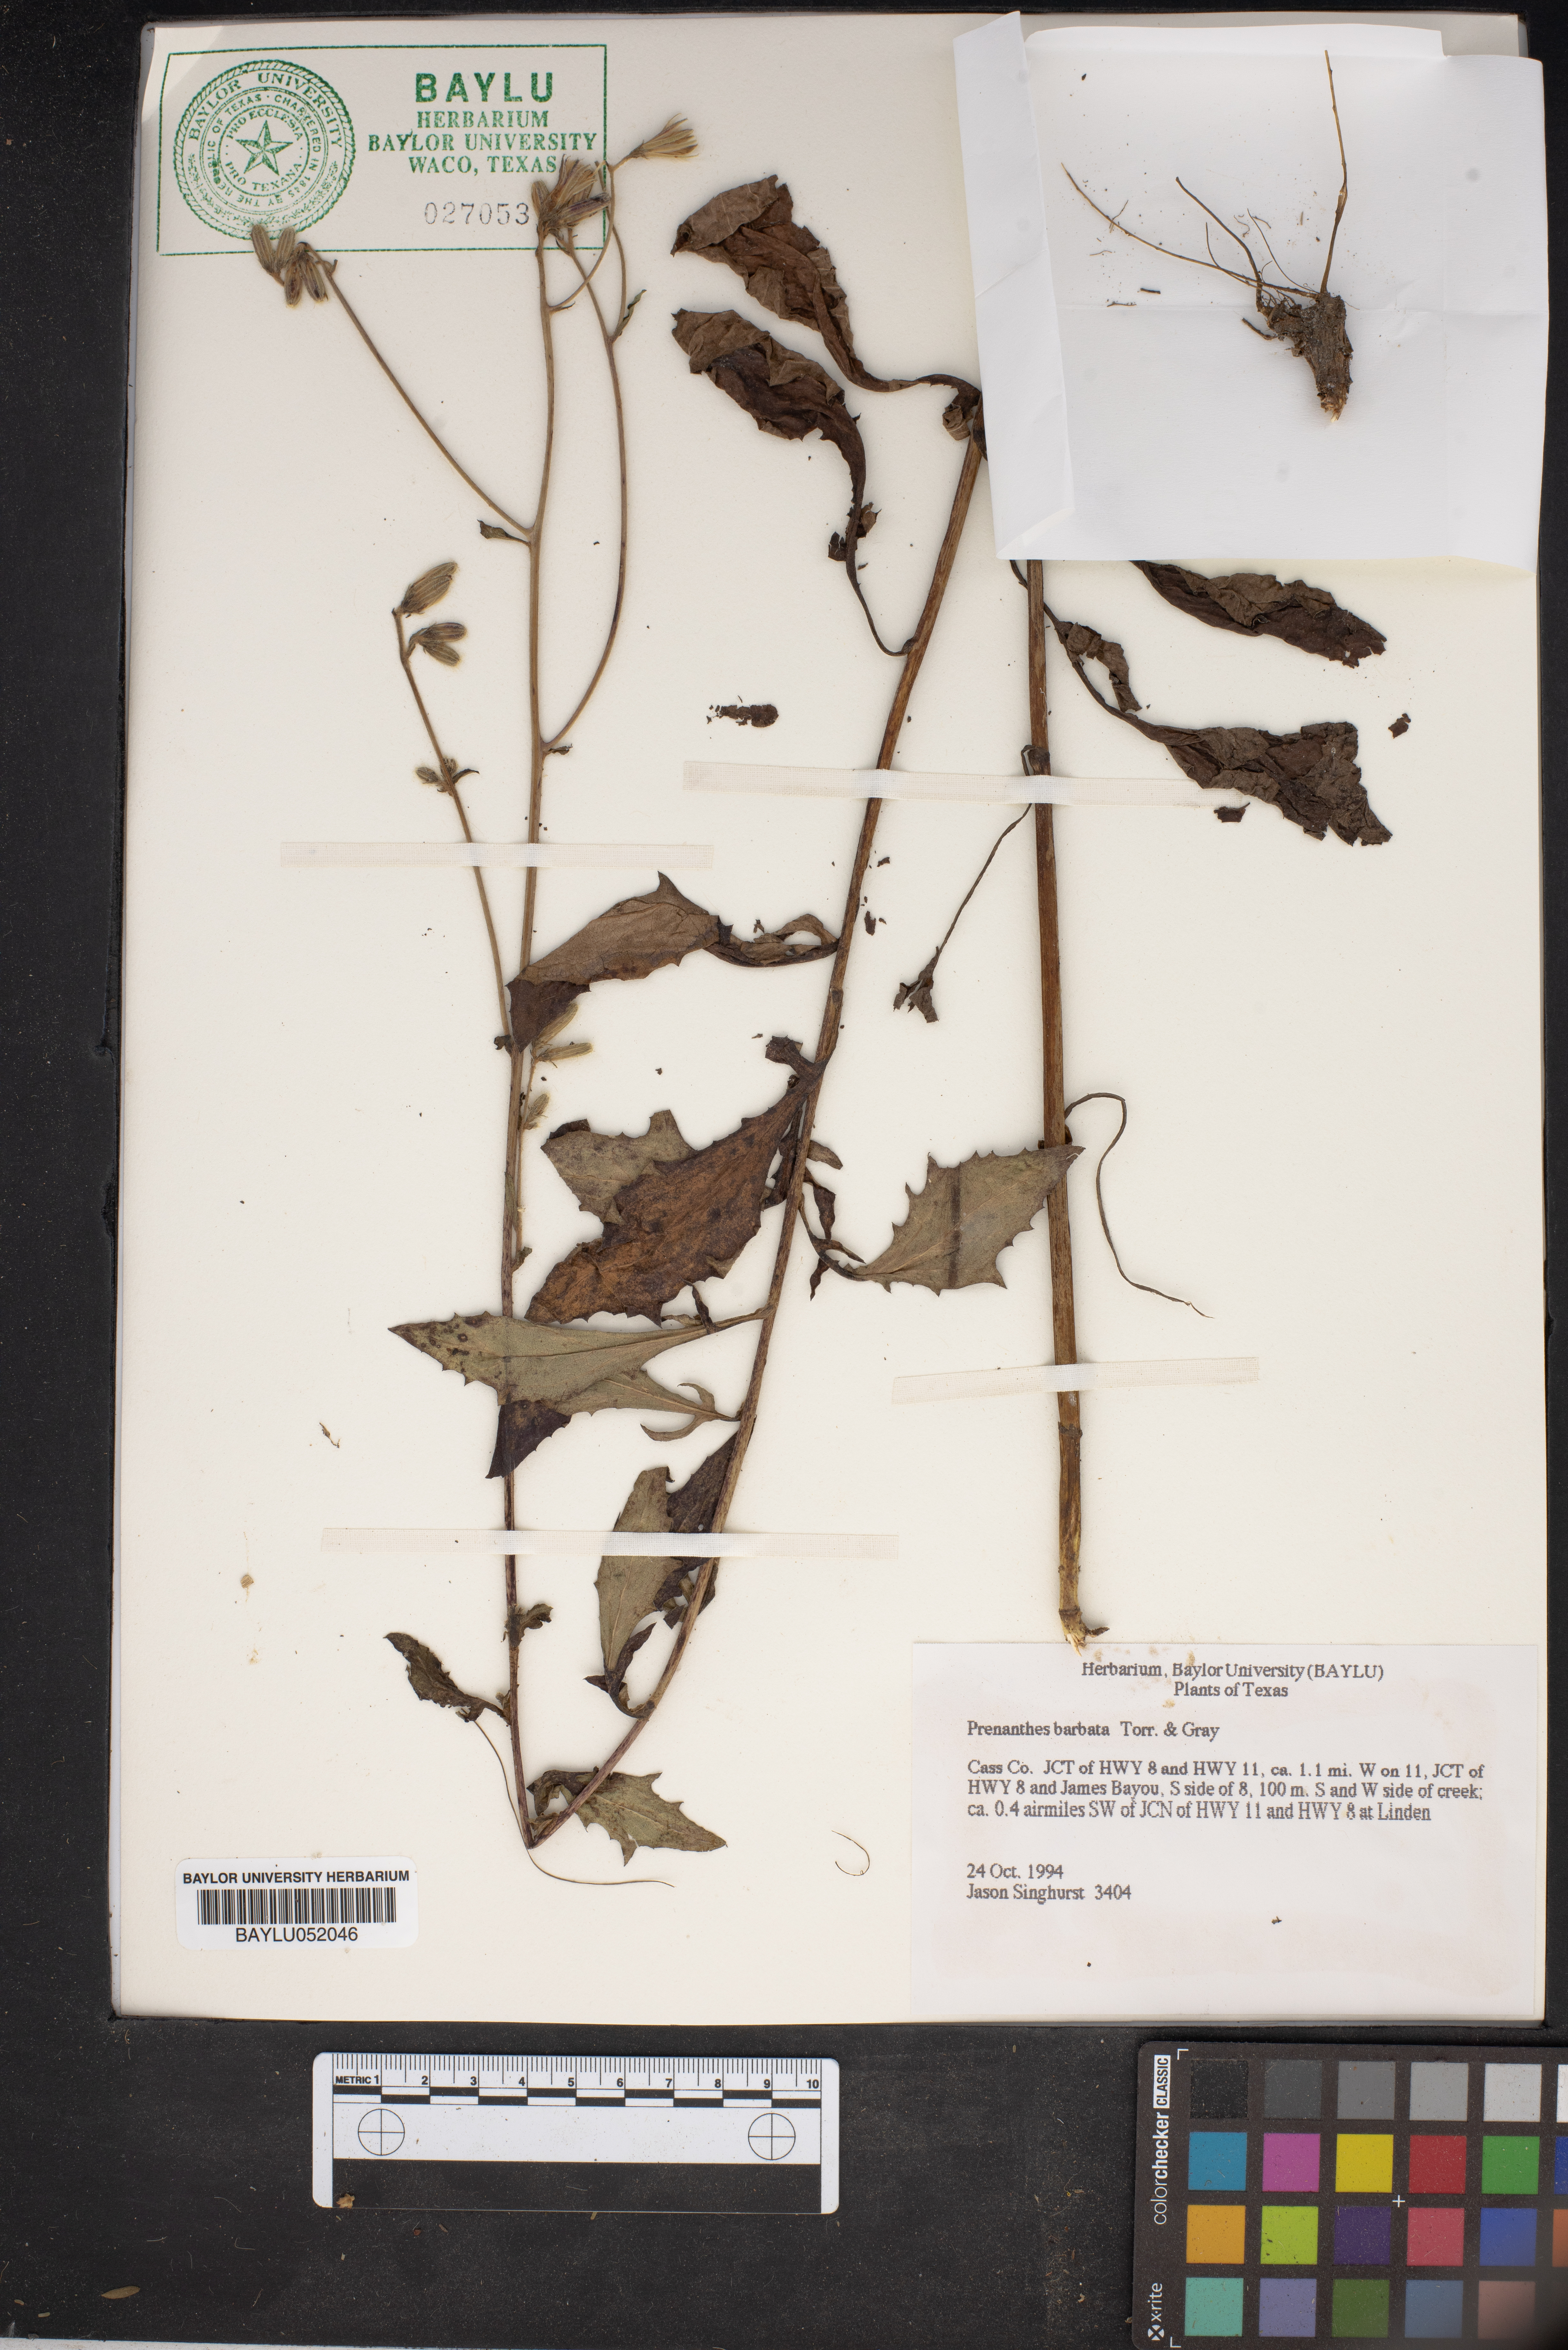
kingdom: Plantae
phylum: Tracheophyta
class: Magnoliopsida
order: Asterales
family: Asteraceae
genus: Nabalus
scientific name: Nabalus barbata
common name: Barbed rattlesnakeroot
